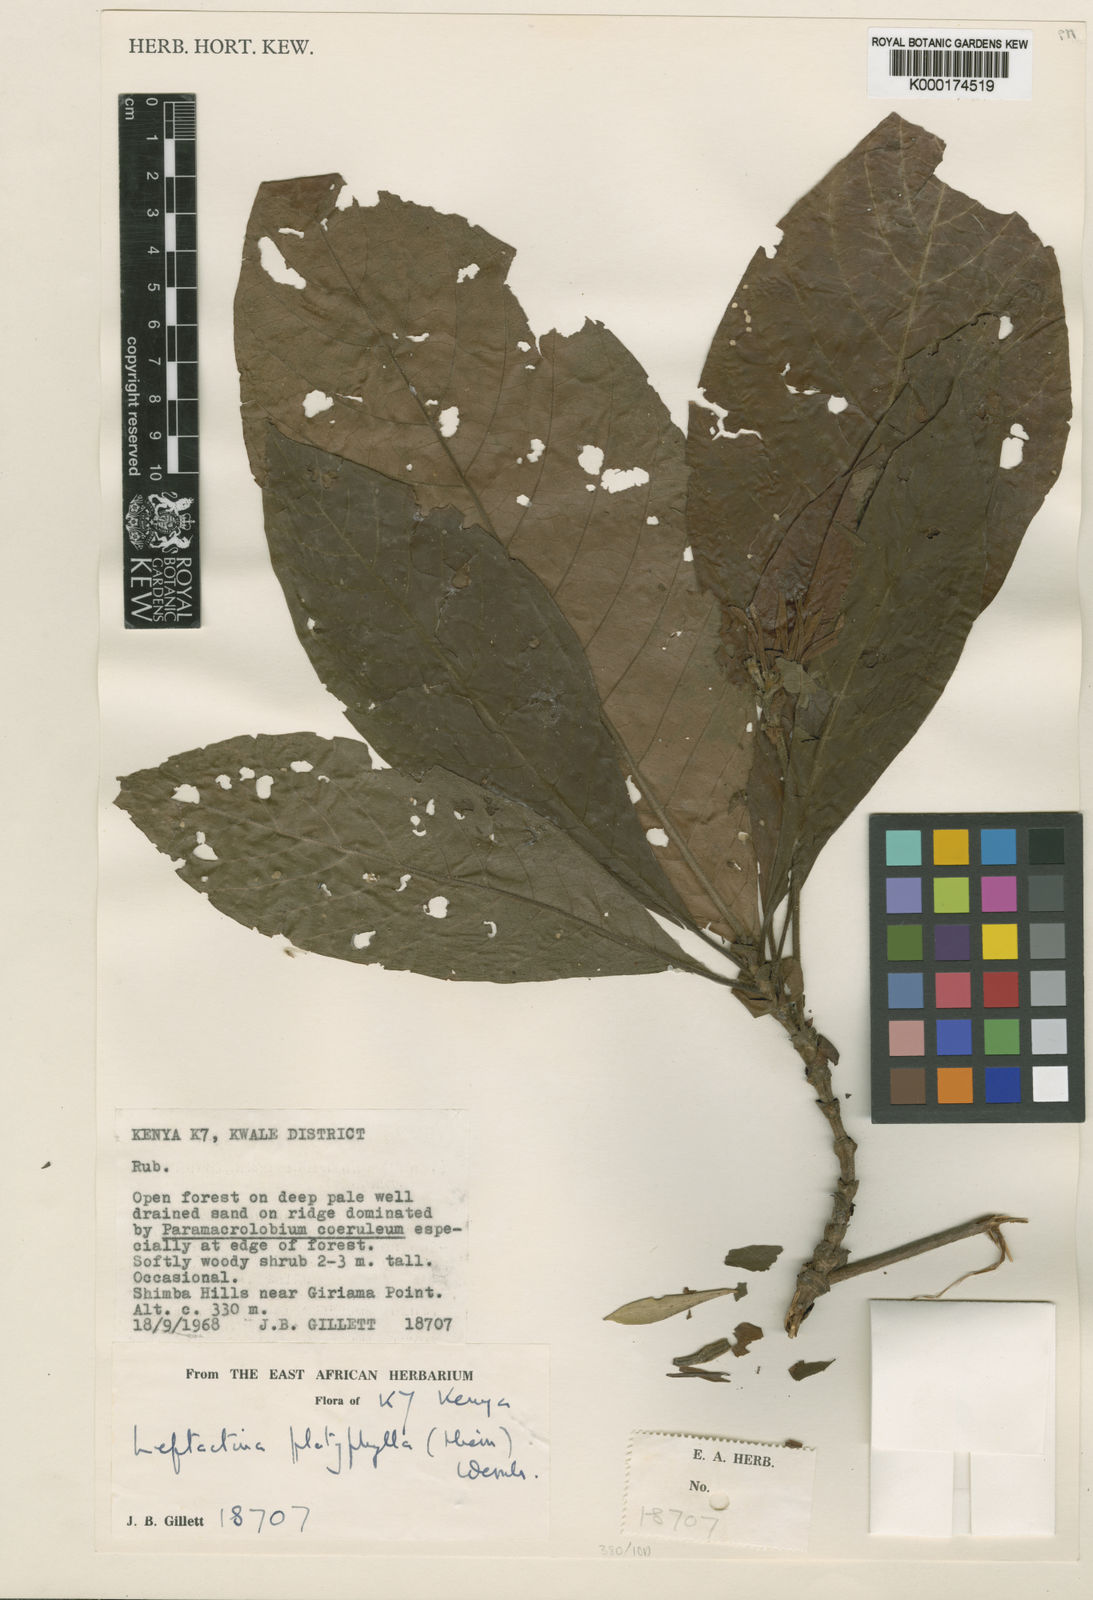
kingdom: Plantae
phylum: Tracheophyta
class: Magnoliopsida
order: Gentianales
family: Rubiaceae
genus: Leptactina
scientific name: Leptactina platyphylla
